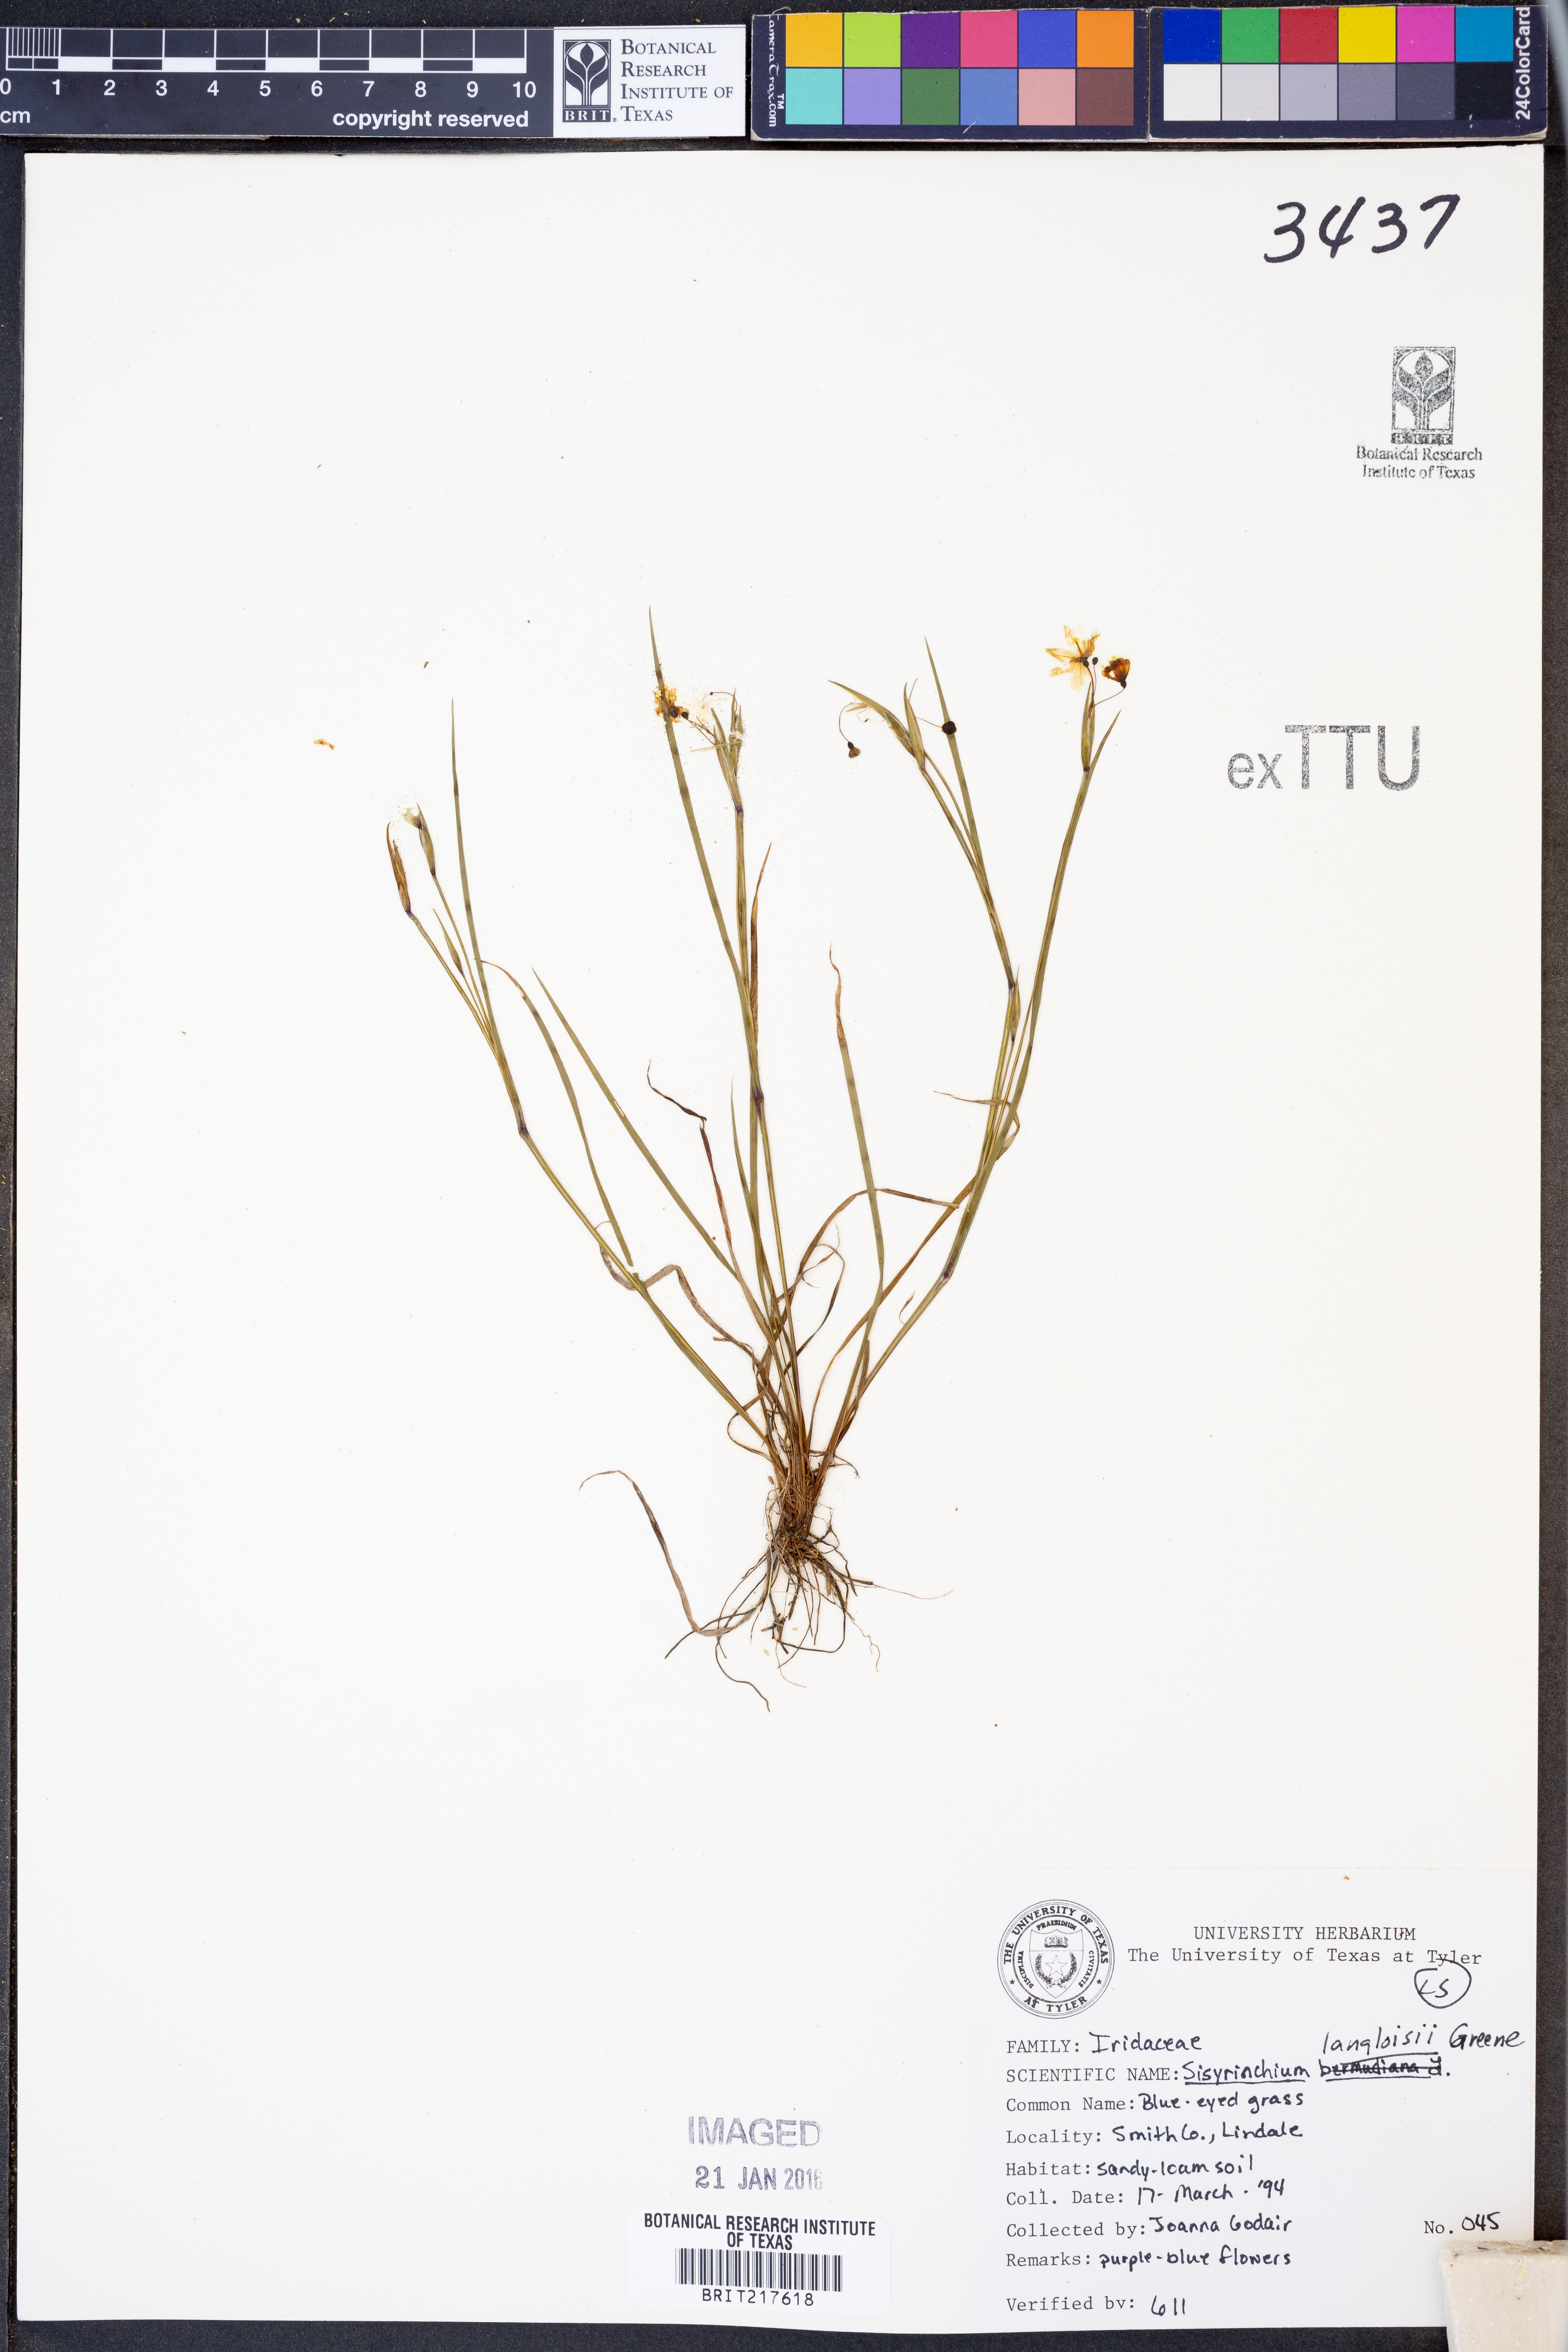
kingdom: Plantae
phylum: Tracheophyta
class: Liliopsida
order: Asparagales
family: Iridaceae
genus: Sisyrinchium
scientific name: Sisyrinchium langloisii
